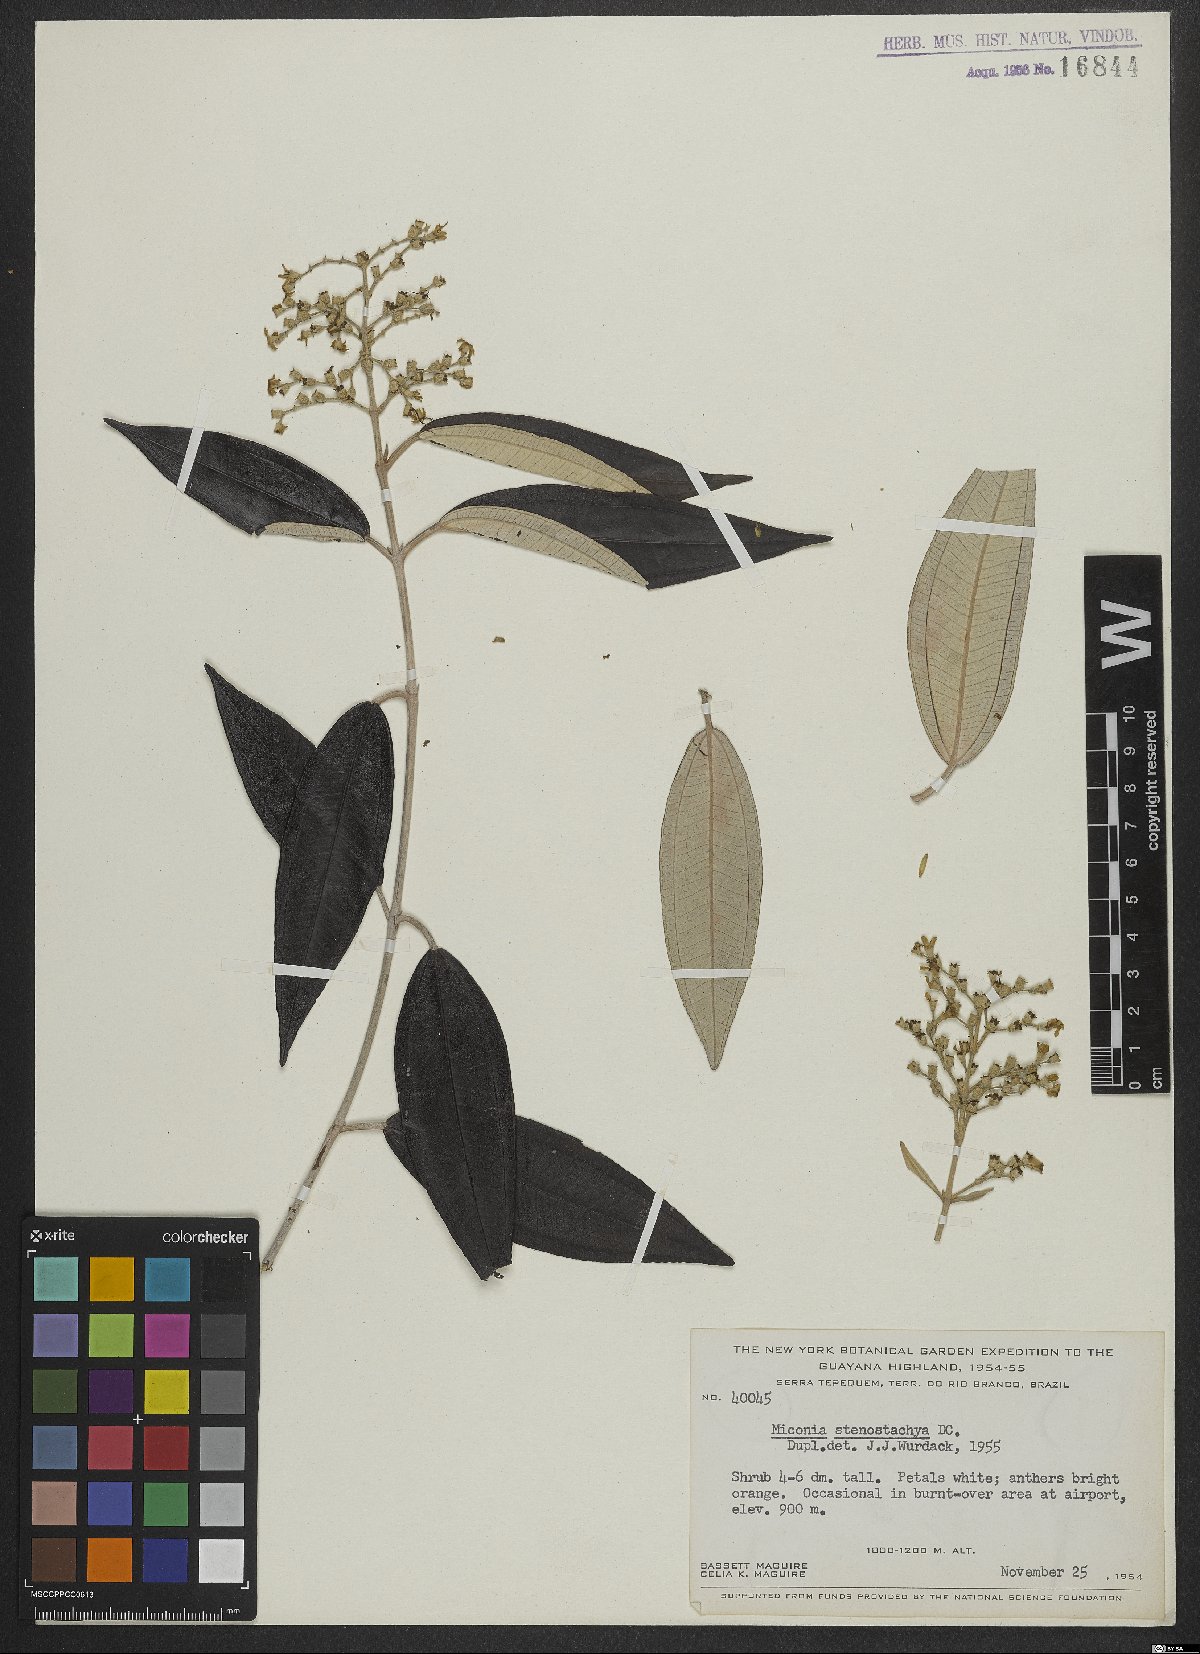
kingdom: Plantae
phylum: Tracheophyta
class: Magnoliopsida
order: Myrtales
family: Melastomataceae
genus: Miconia
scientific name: Miconia stenostachya
